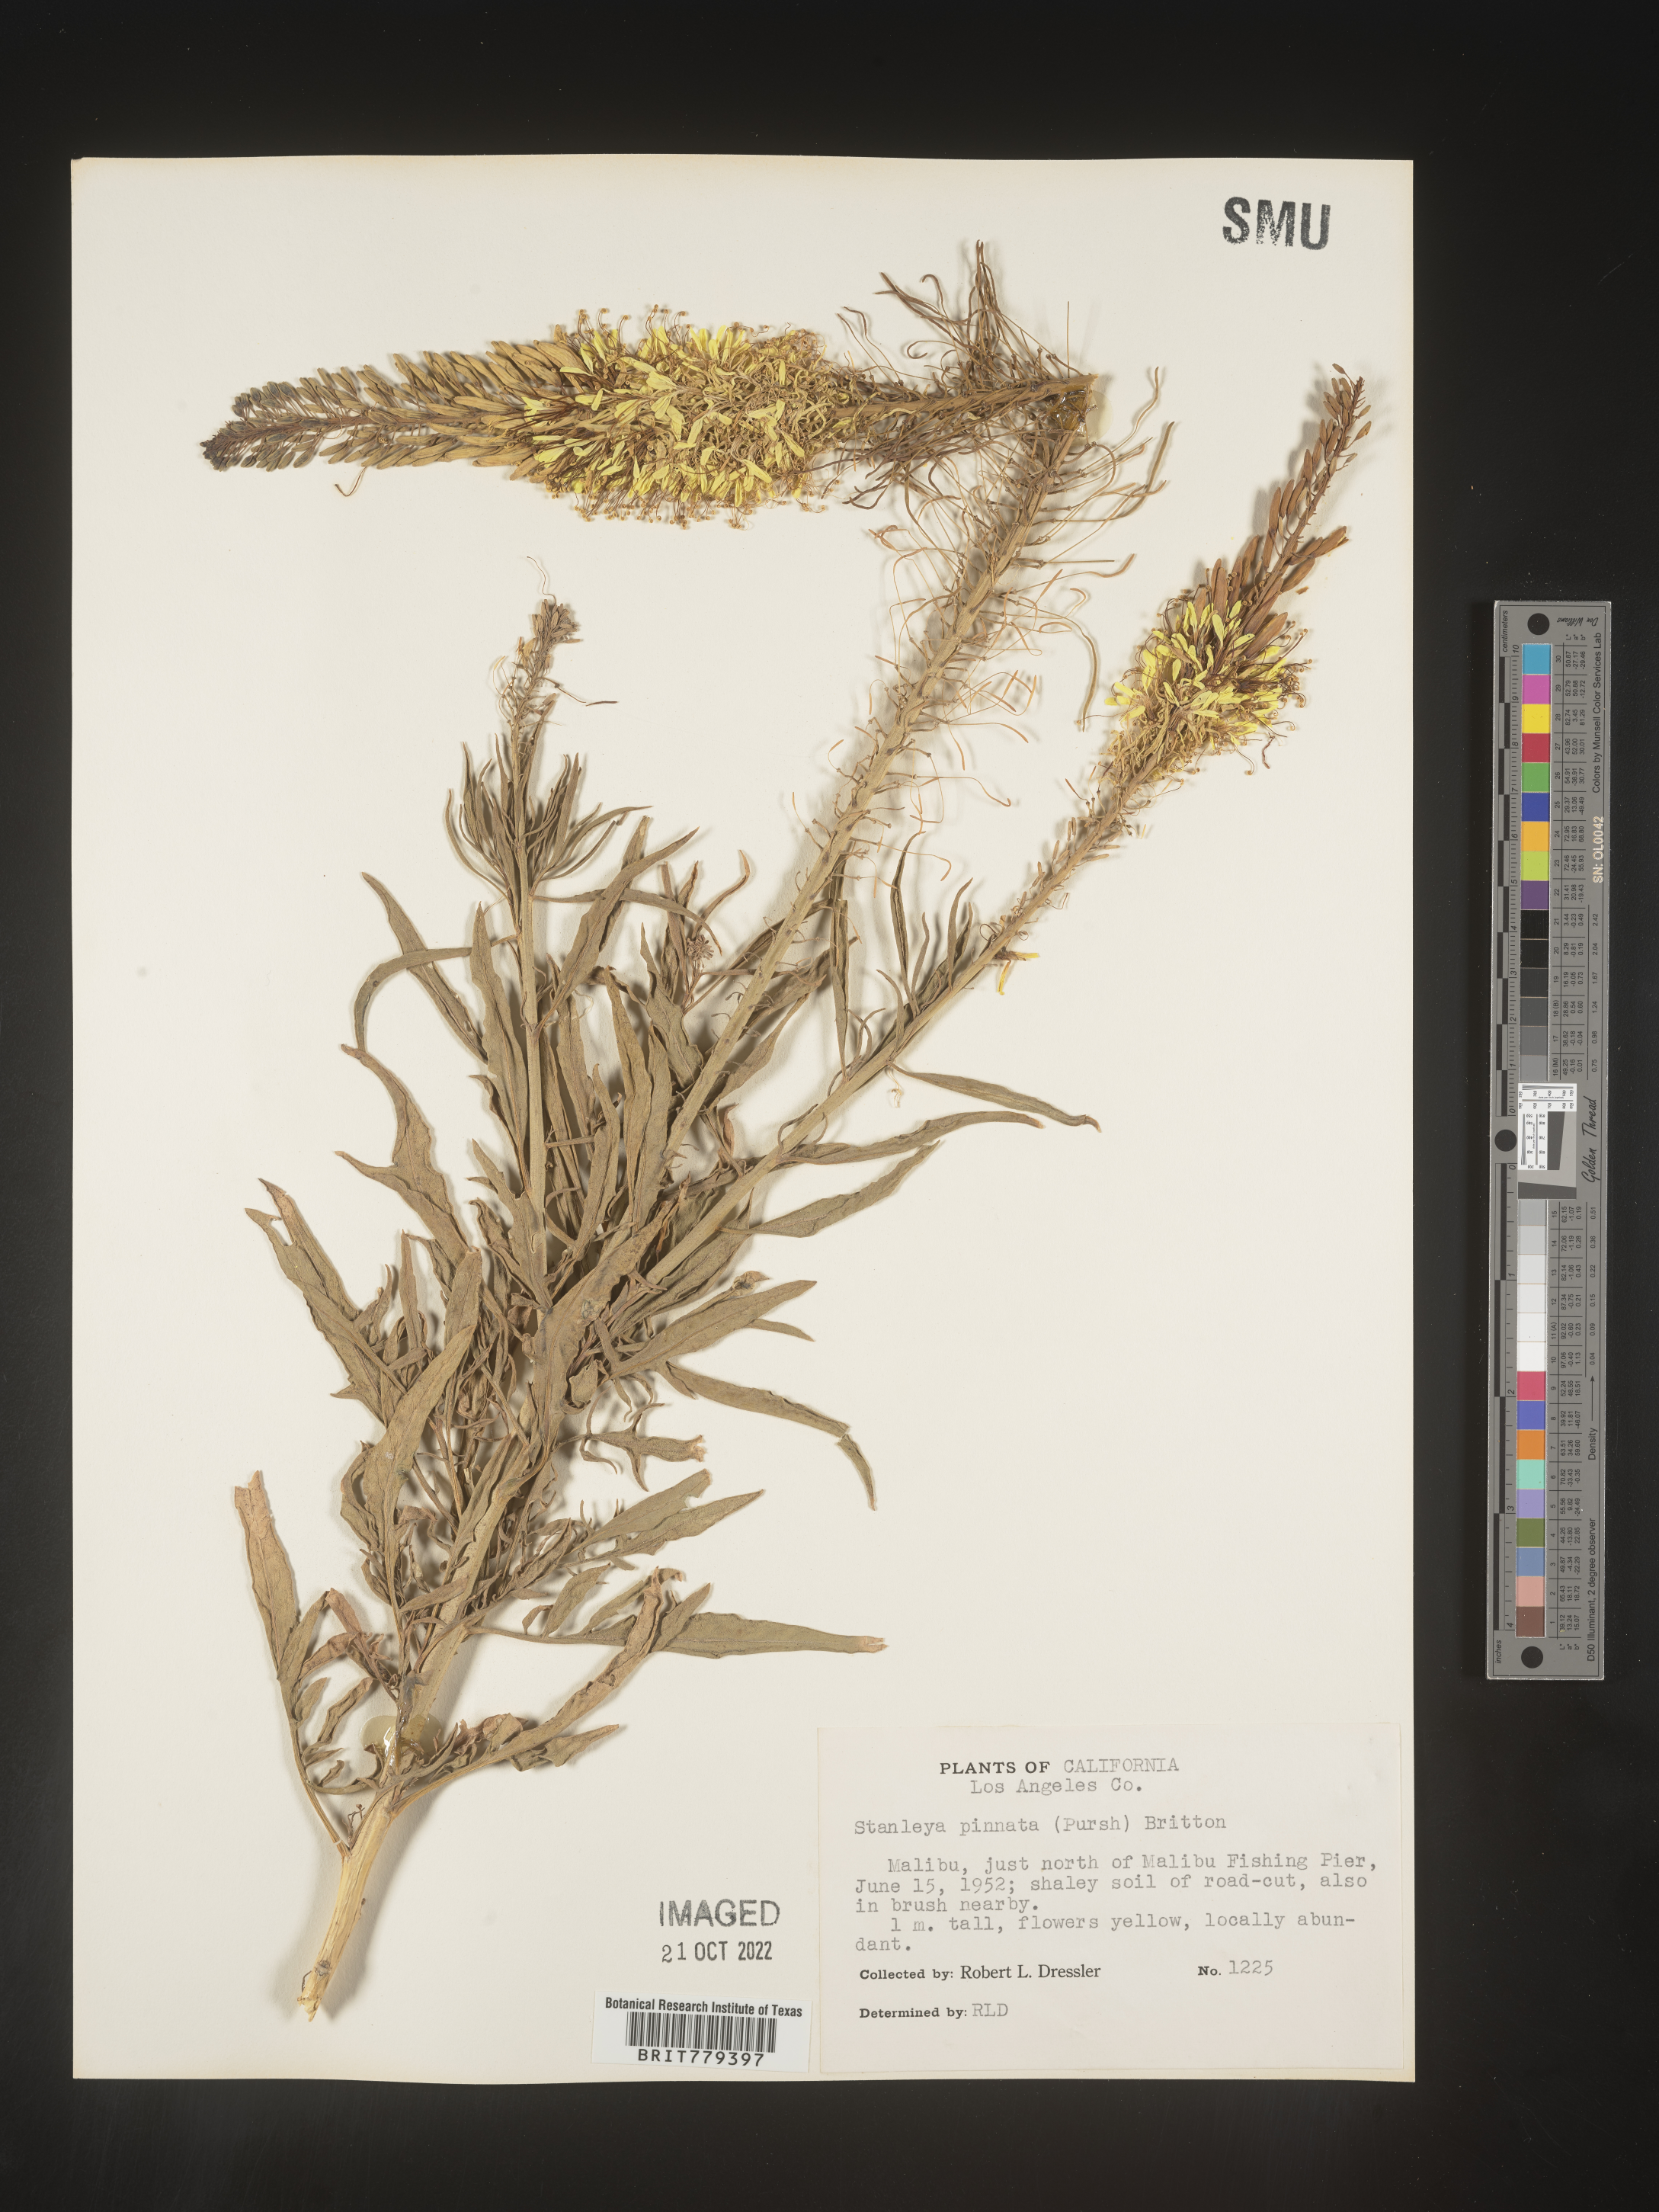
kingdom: Plantae
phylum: Tracheophyta
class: Magnoliopsida
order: Brassicales
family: Brassicaceae
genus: Stanleya
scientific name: Stanleya pinnata
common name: Prince's-plume
